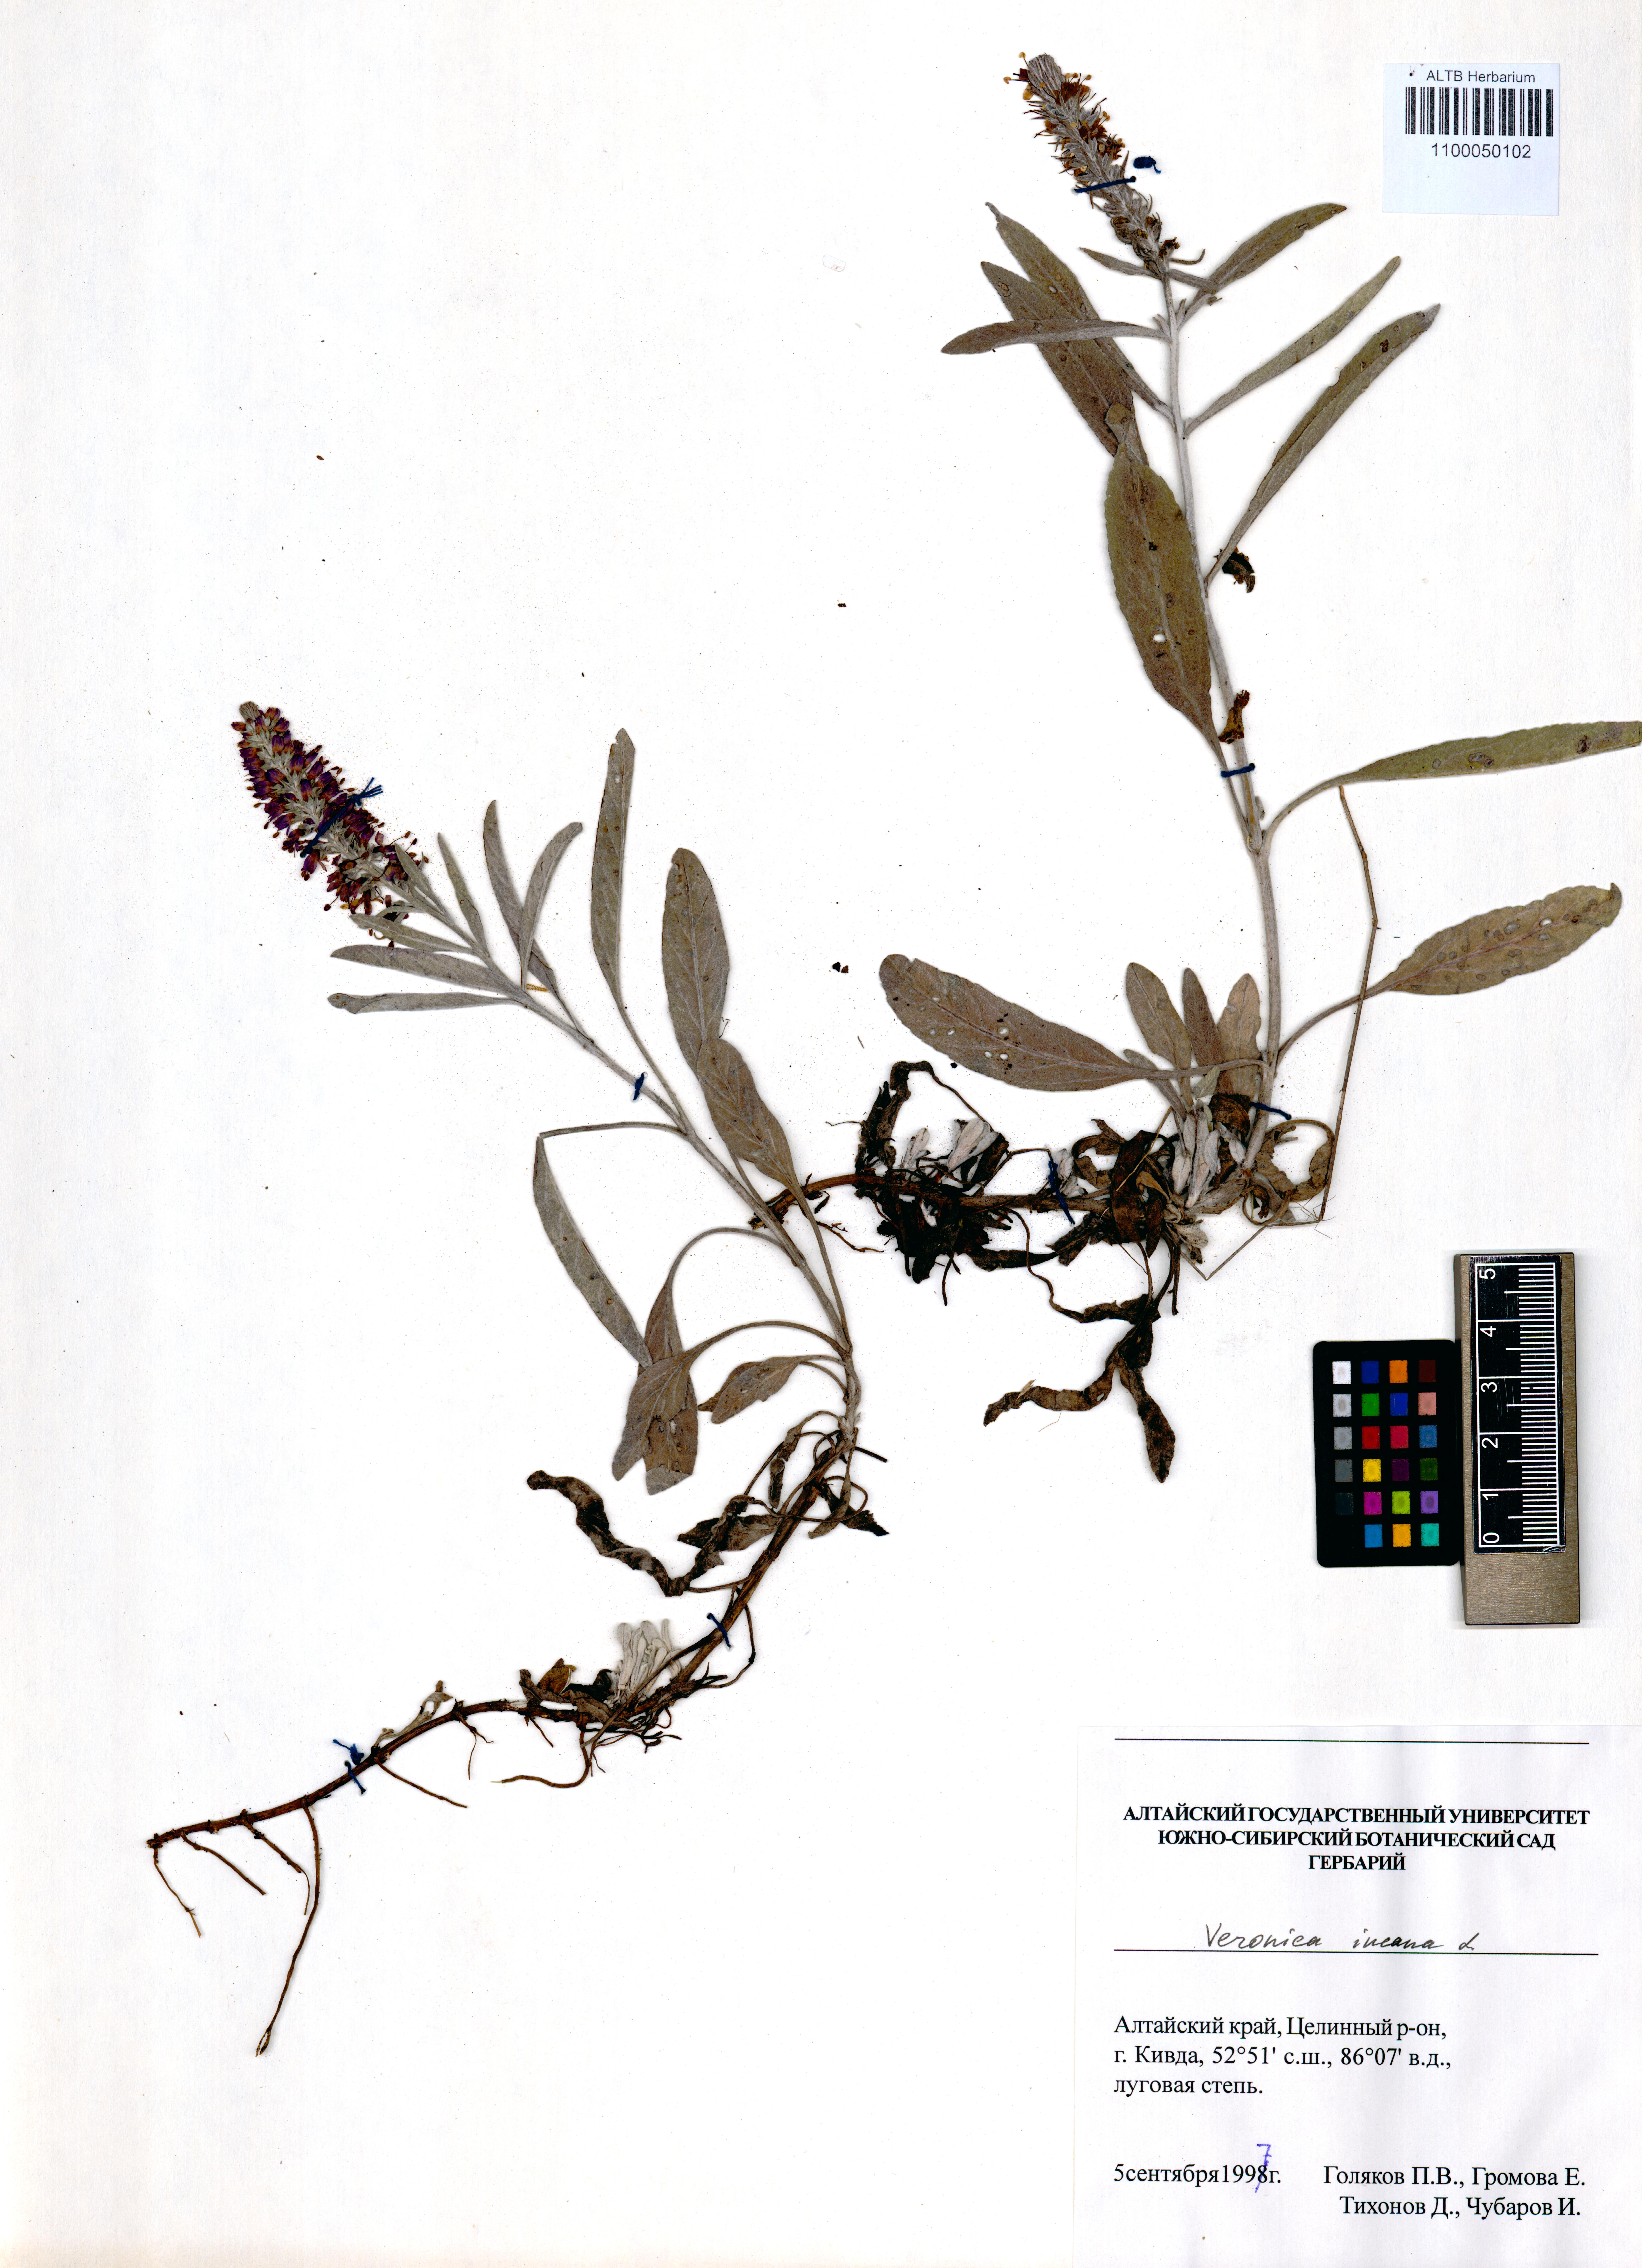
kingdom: Plantae
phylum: Tracheophyta
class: Magnoliopsida
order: Lamiales
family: Plantaginaceae
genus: Veronica
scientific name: Veronica incana
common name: Silver speedwell
